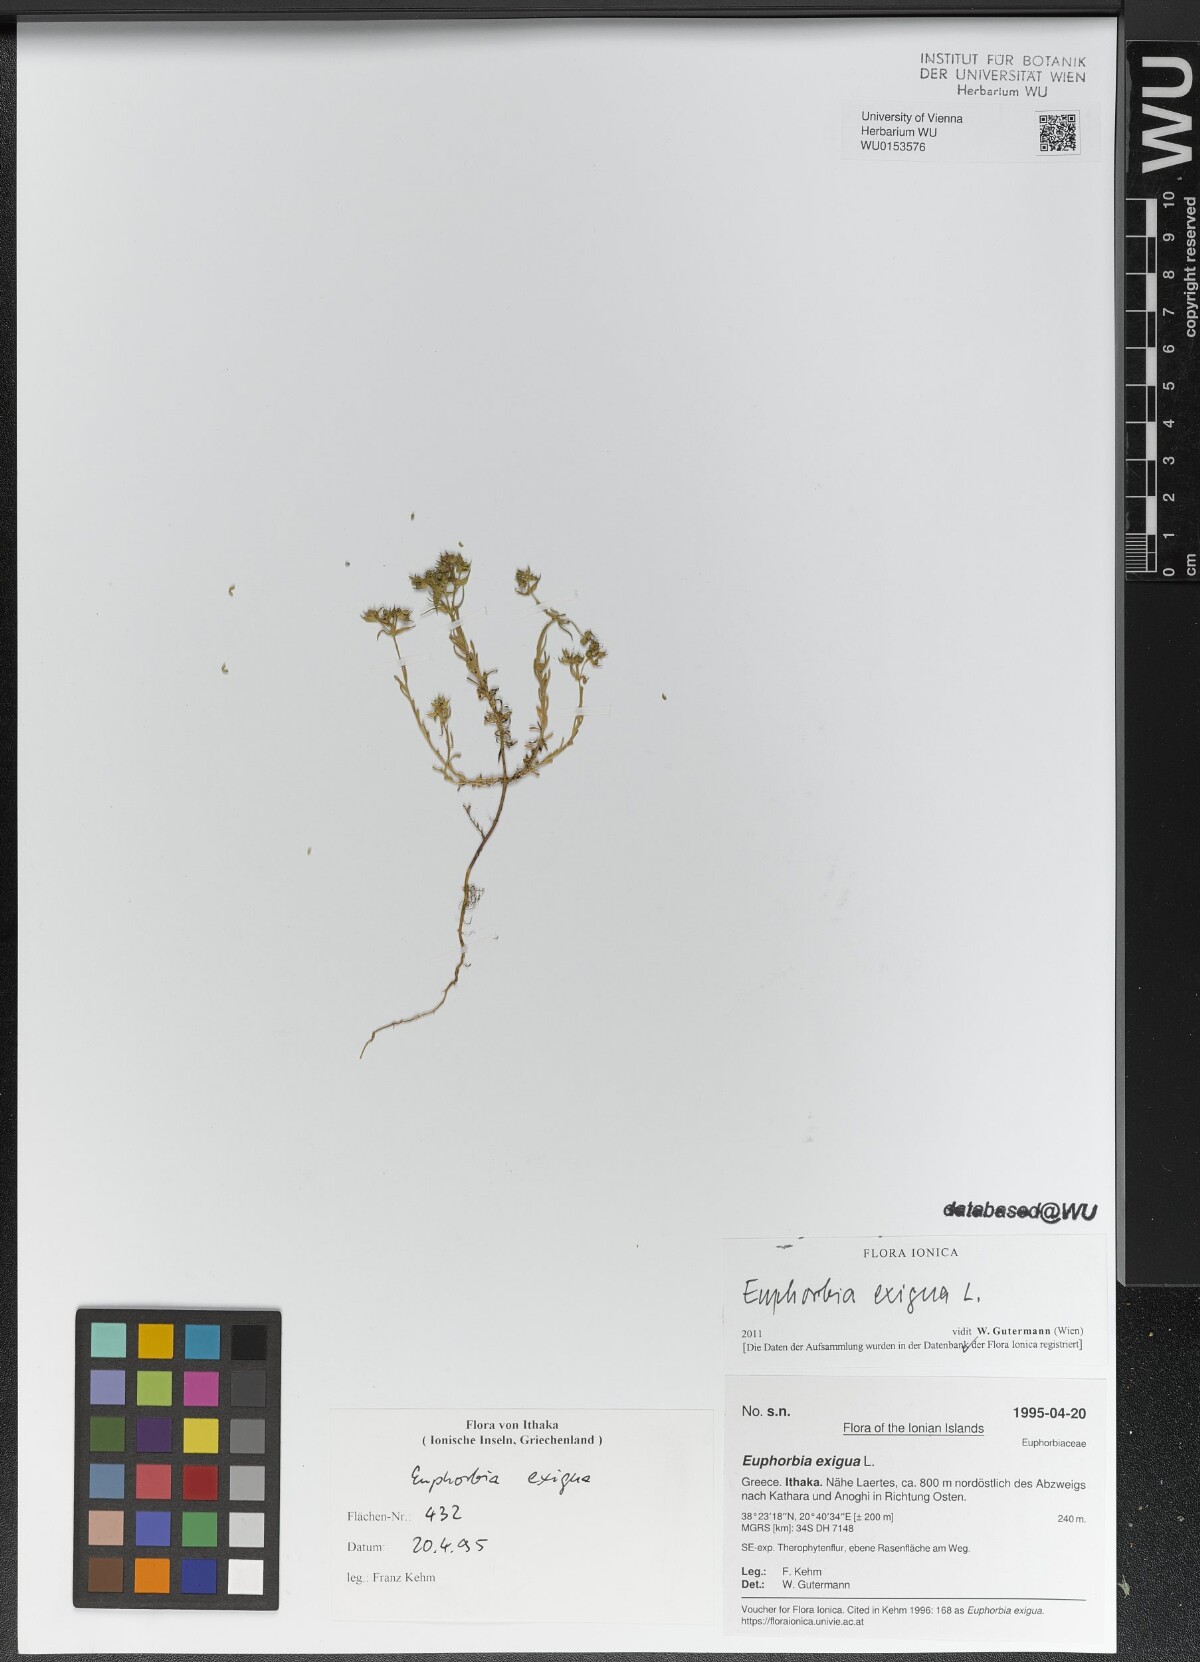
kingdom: Plantae
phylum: Tracheophyta
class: Magnoliopsida
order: Malpighiales
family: Euphorbiaceae
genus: Euphorbia
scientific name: Euphorbia exigua
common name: Dwarf spurge
